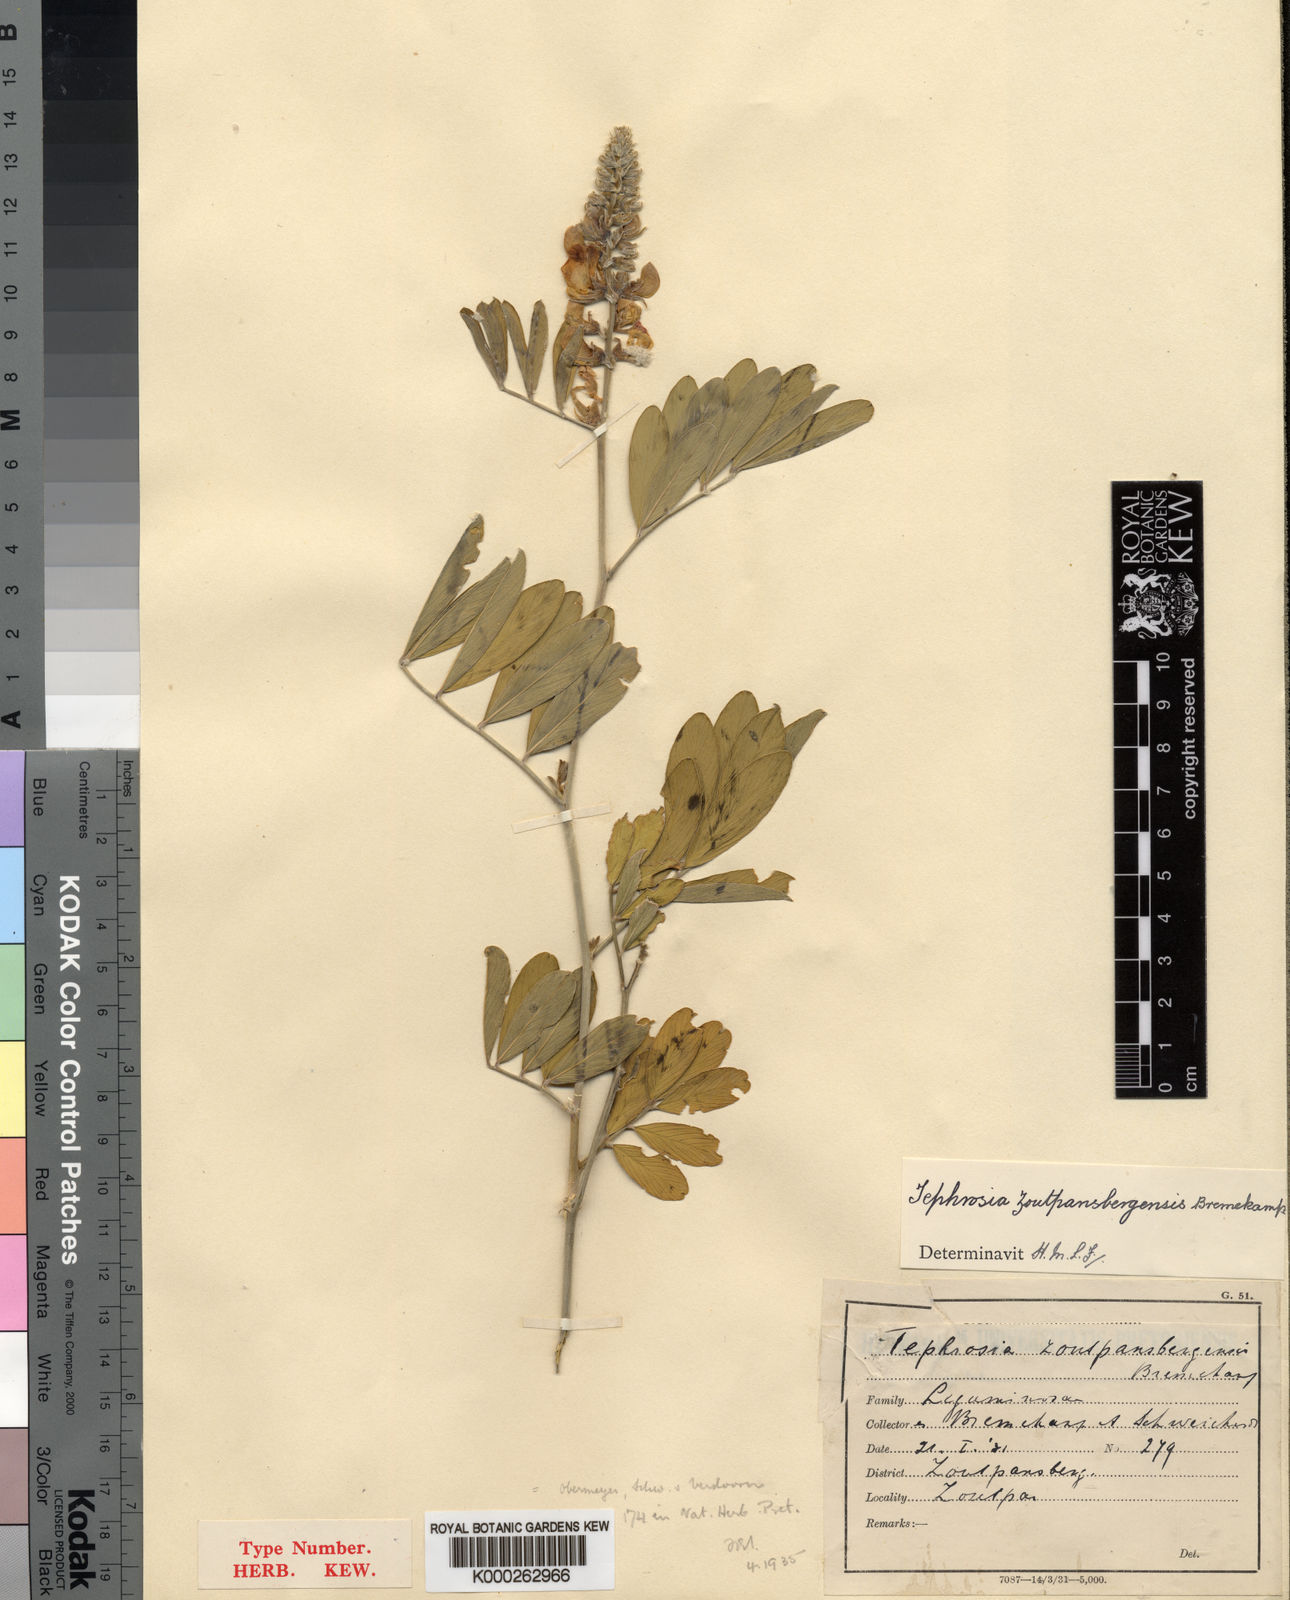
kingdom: Plantae
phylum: Tracheophyta
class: Magnoliopsida
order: Fabales
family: Fabaceae
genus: Tephrosia
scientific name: Tephrosia zoutpansbergensis
